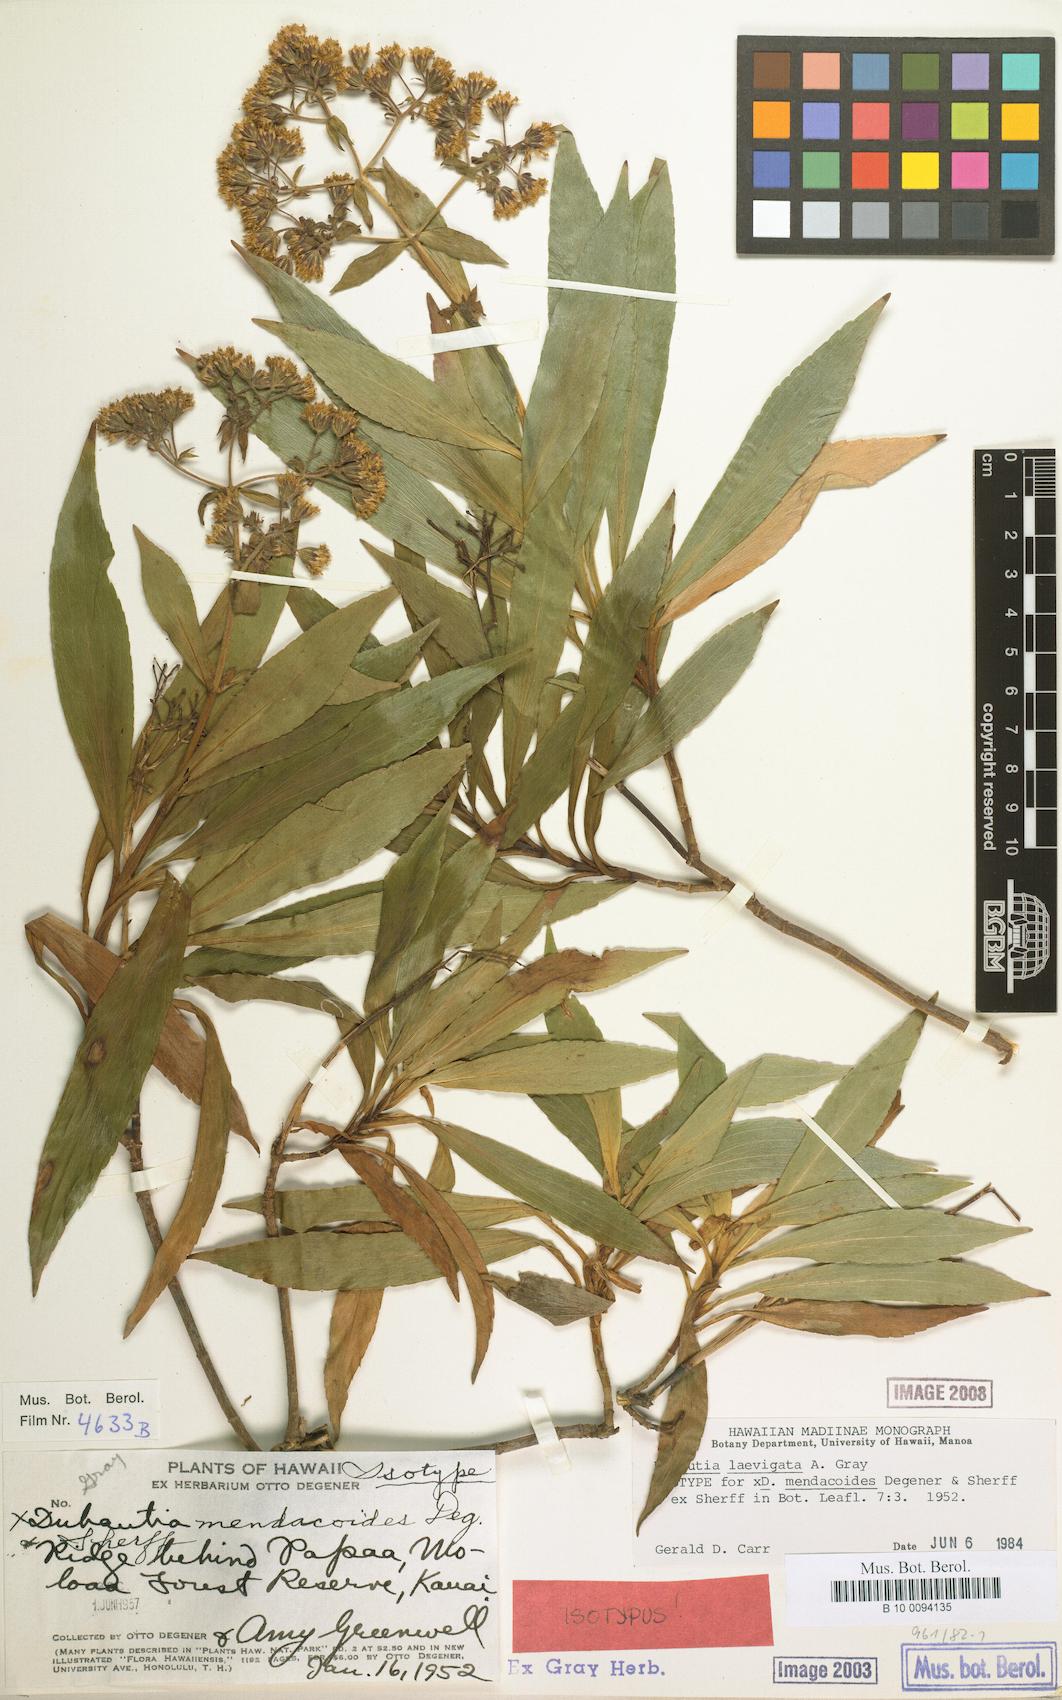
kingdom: Plantae
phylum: Tracheophyta
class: Magnoliopsida
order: Asterales
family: Asteraceae
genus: Dubautia
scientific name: Dubautia laevigata
